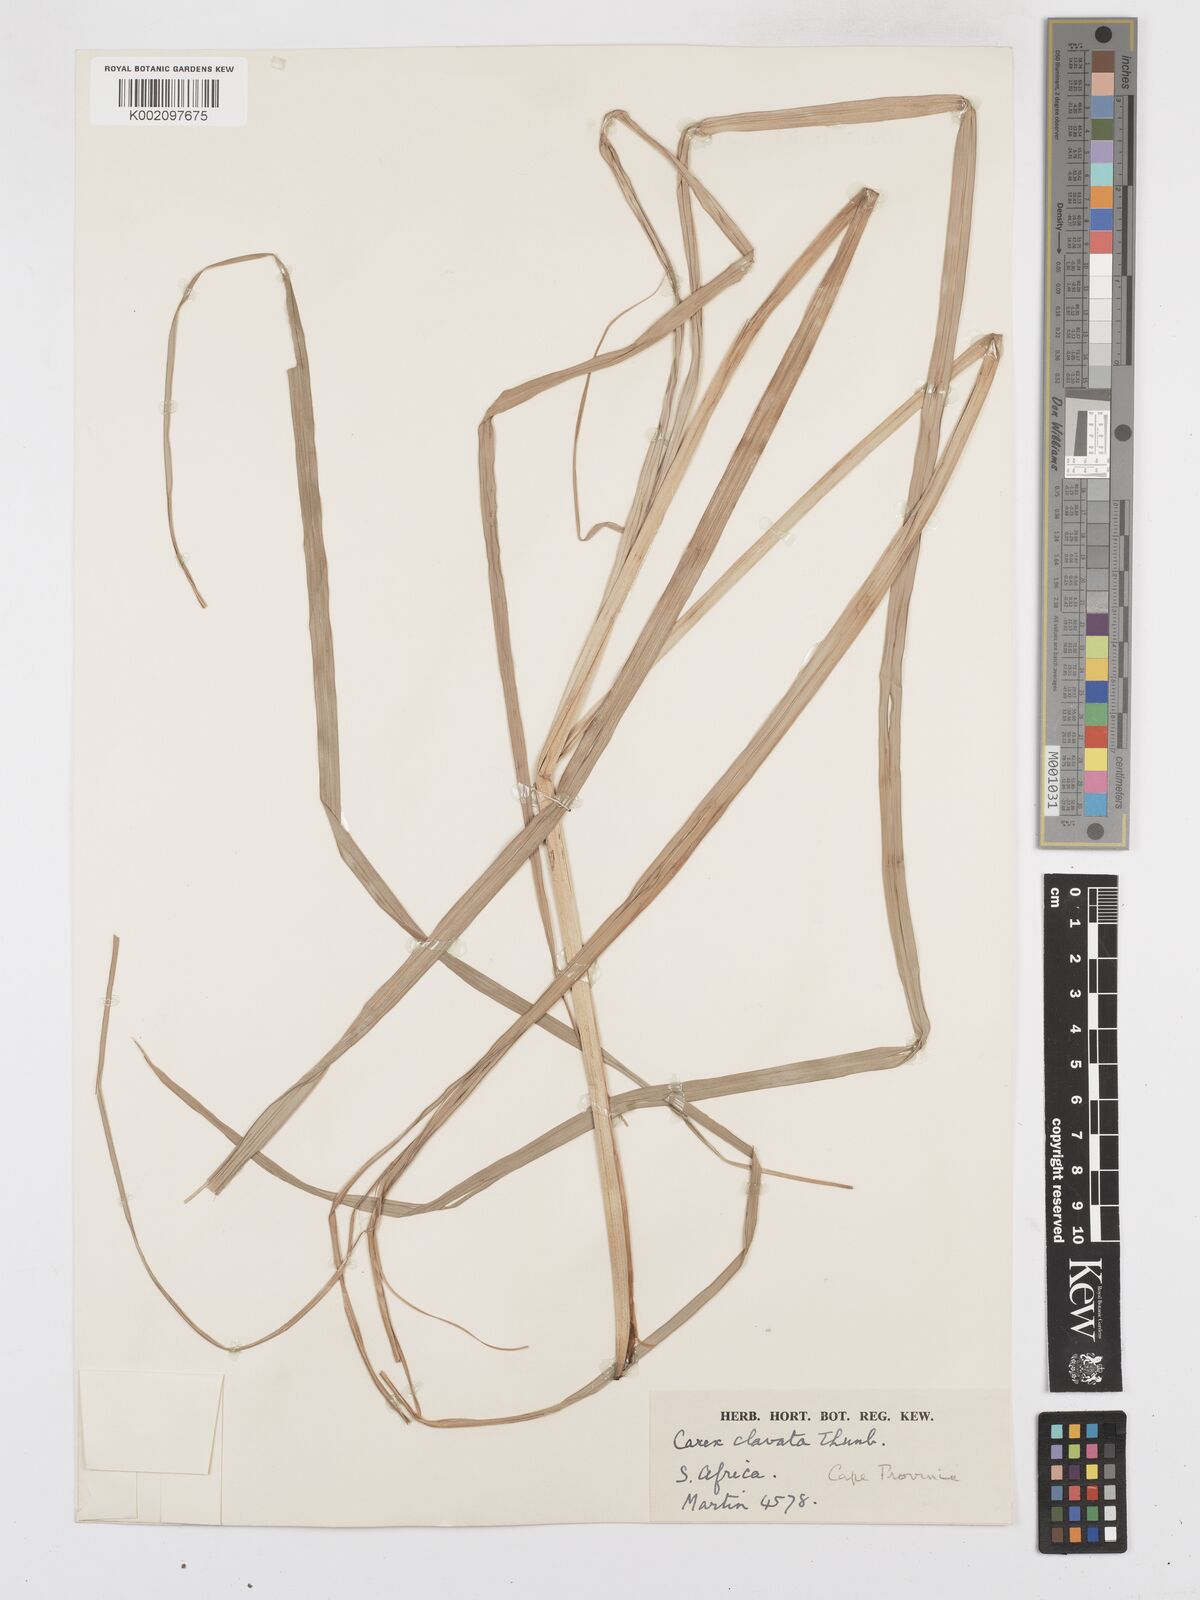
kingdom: Plantae
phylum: Tracheophyta
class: Liliopsida
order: Poales
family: Cyperaceae
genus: Carex
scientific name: Carex clavata
